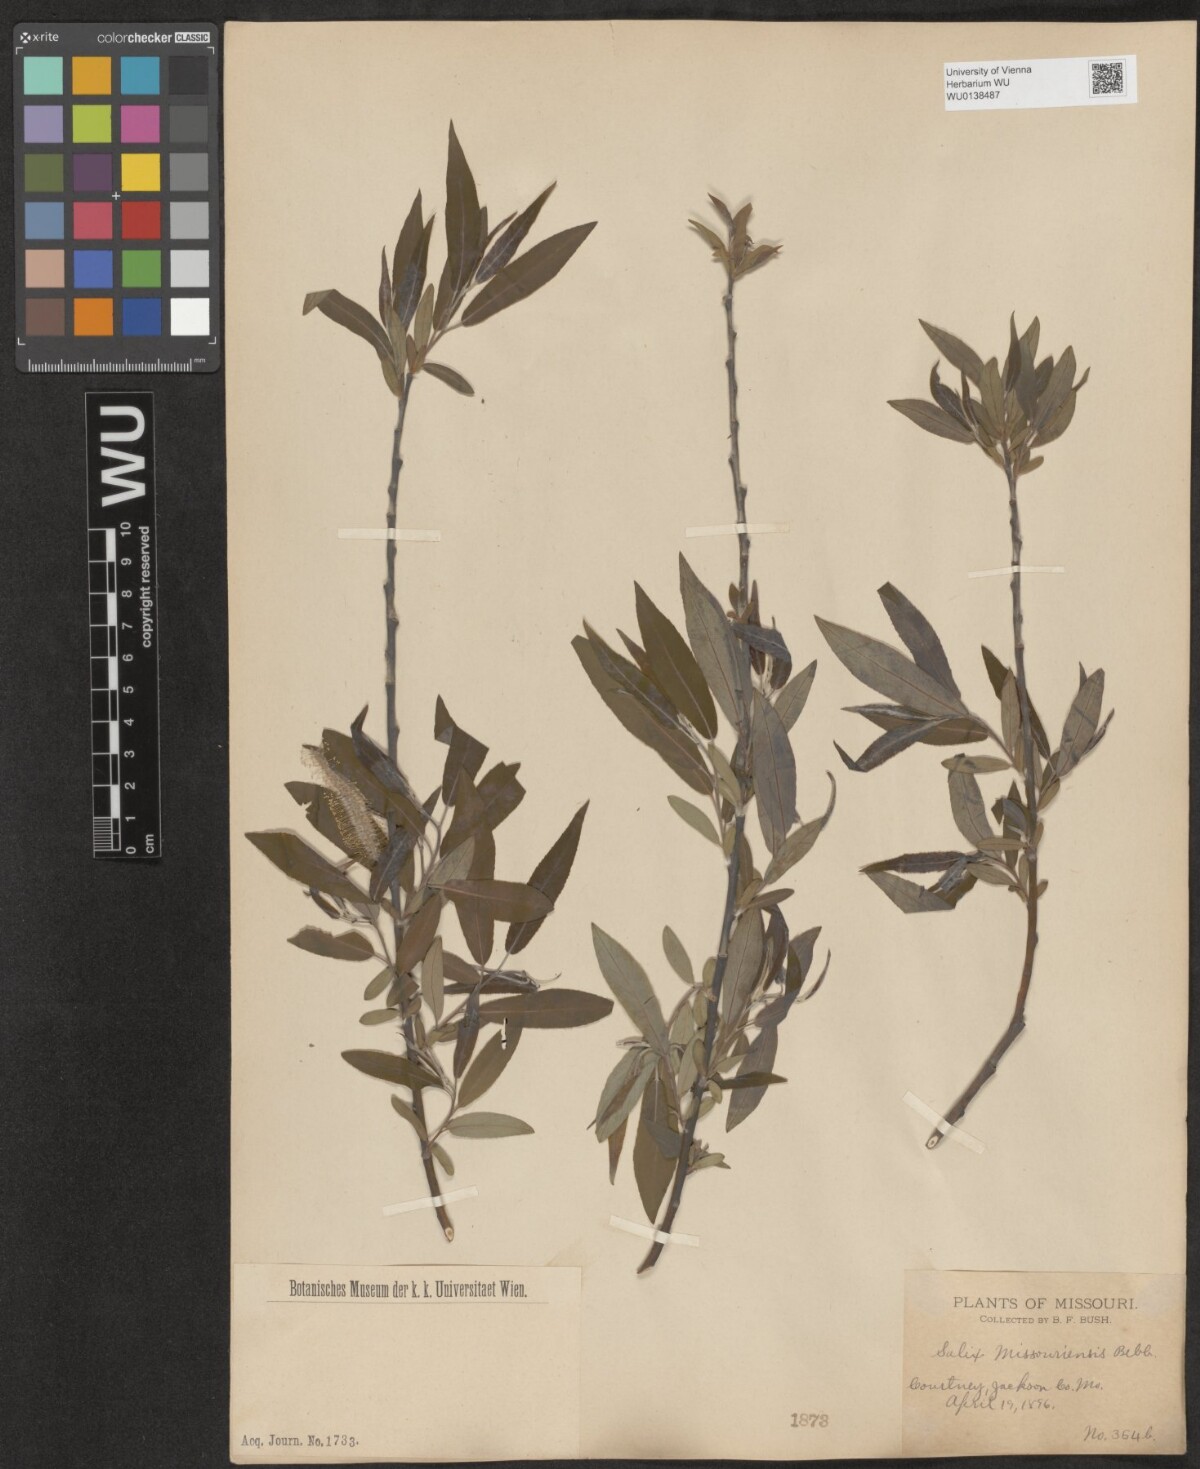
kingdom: Plantae
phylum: Tracheophyta
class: Magnoliopsida
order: Malpighiales
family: Salicaceae
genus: Salix
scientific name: Salix eriocephala
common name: Heart-leaved willow
